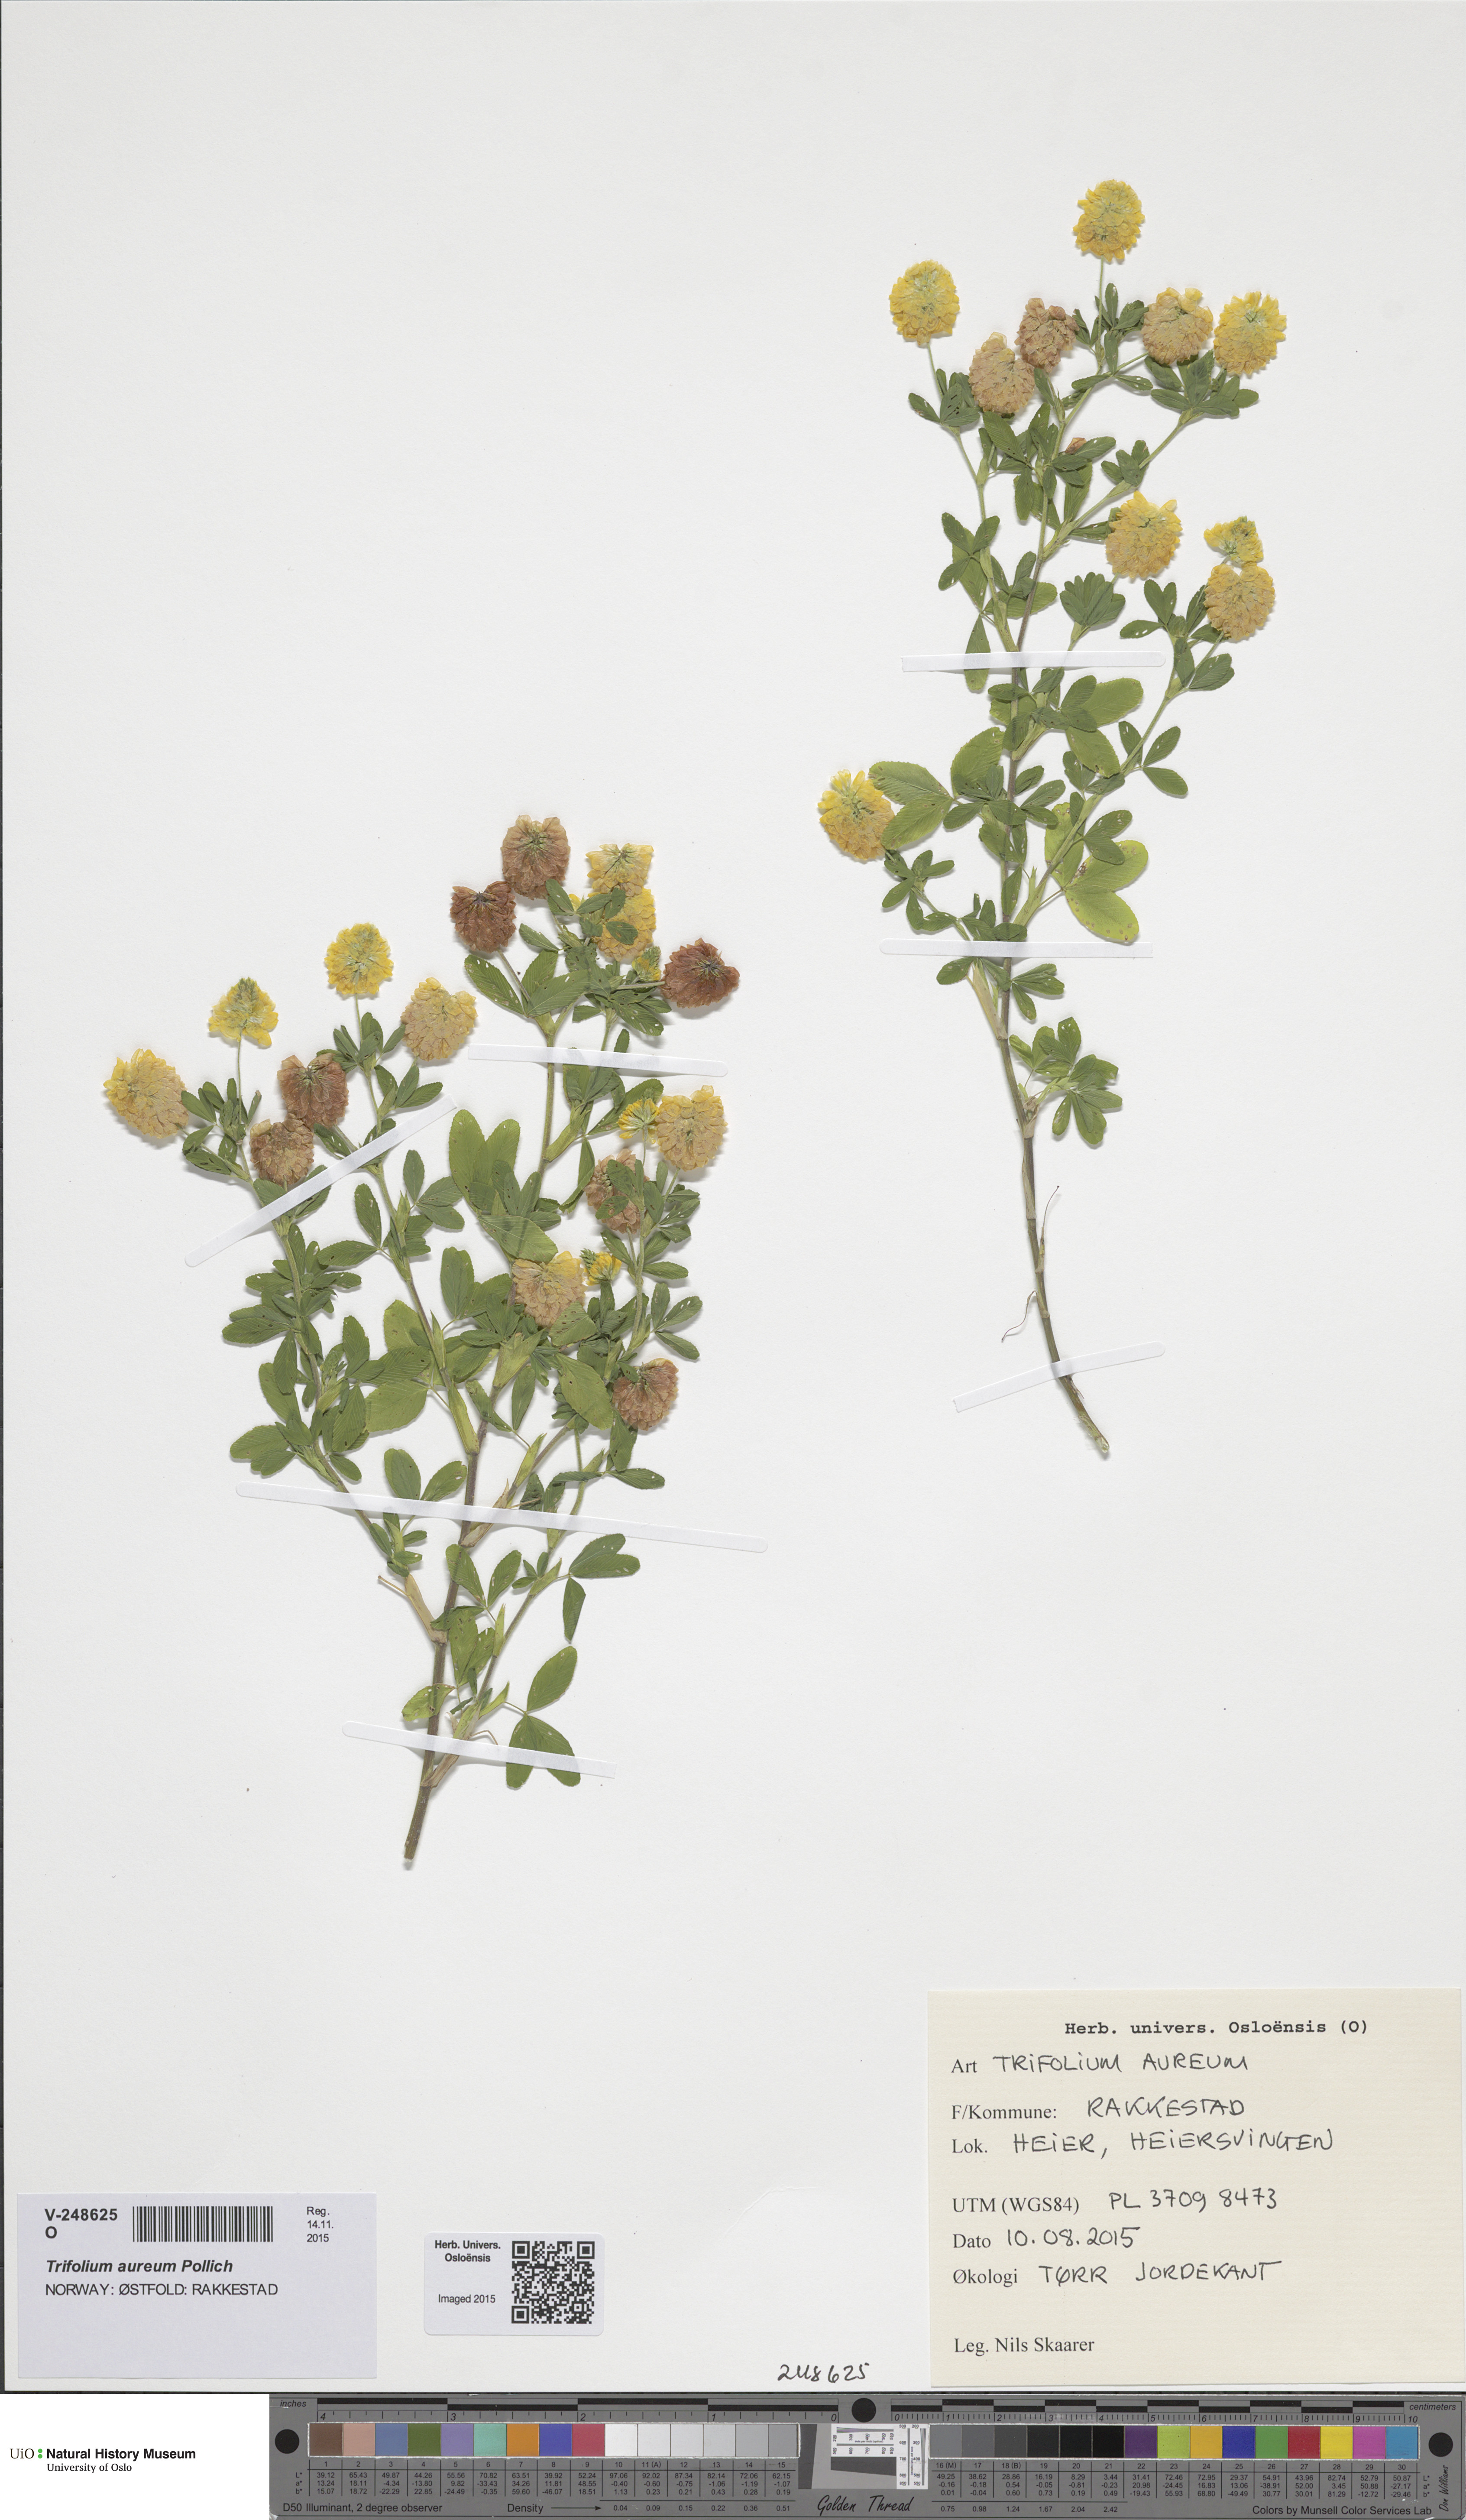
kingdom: Plantae
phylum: Tracheophyta
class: Magnoliopsida
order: Fabales
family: Fabaceae
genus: Trifolium
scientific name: Trifolium aureum
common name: Golden clover
